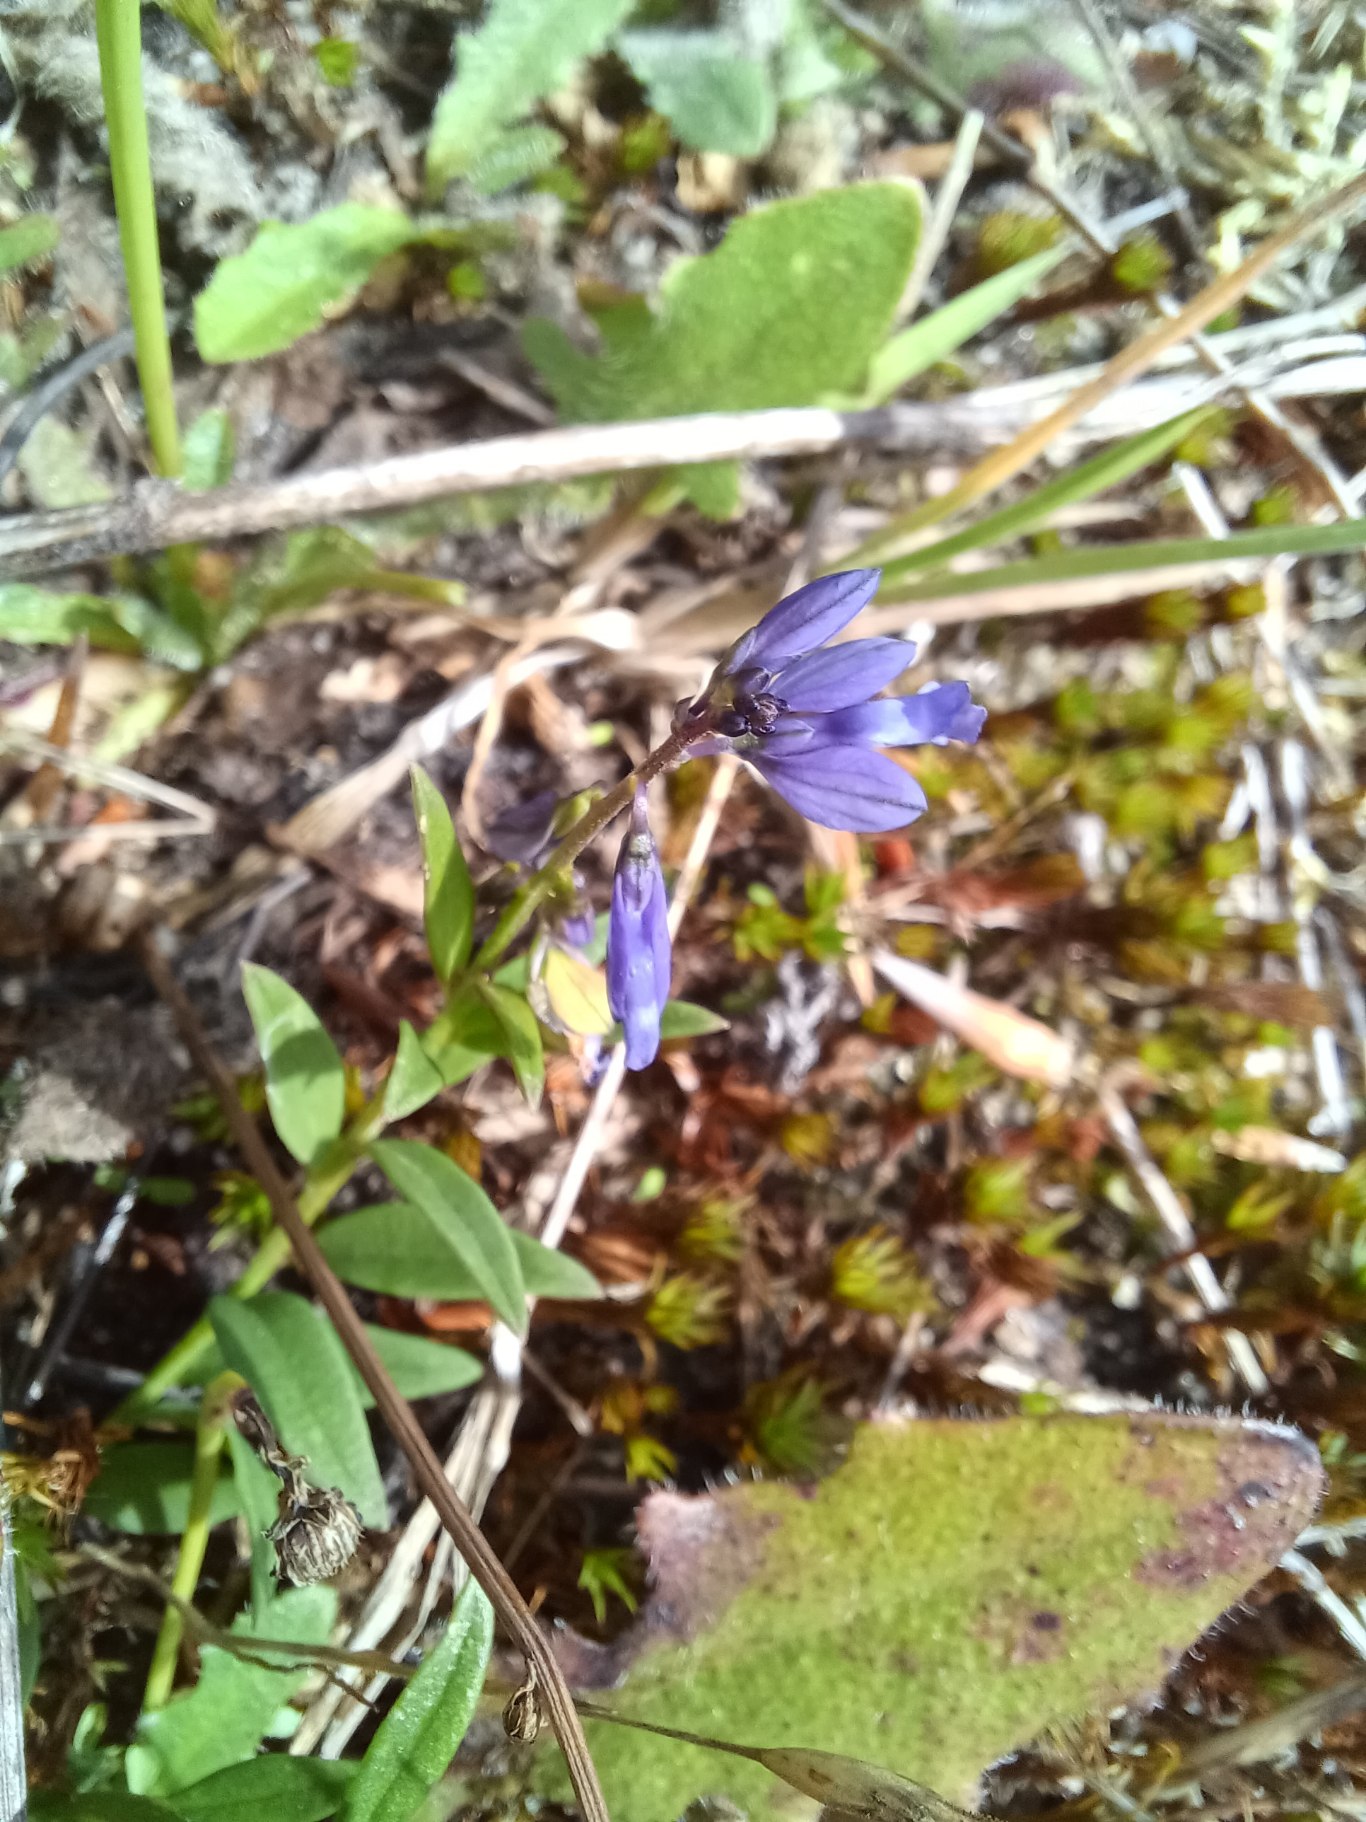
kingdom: Plantae
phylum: Tracheophyta
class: Magnoliopsida
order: Fabales
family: Polygalaceae
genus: Polygala
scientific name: Polygala serpyllifolia
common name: Spæd mælkeurt
